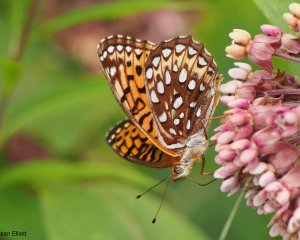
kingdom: Animalia
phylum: Arthropoda
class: Insecta
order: Lepidoptera
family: Nymphalidae
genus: Speyeria
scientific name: Speyeria atlantis
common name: Atlantis Fritillary
